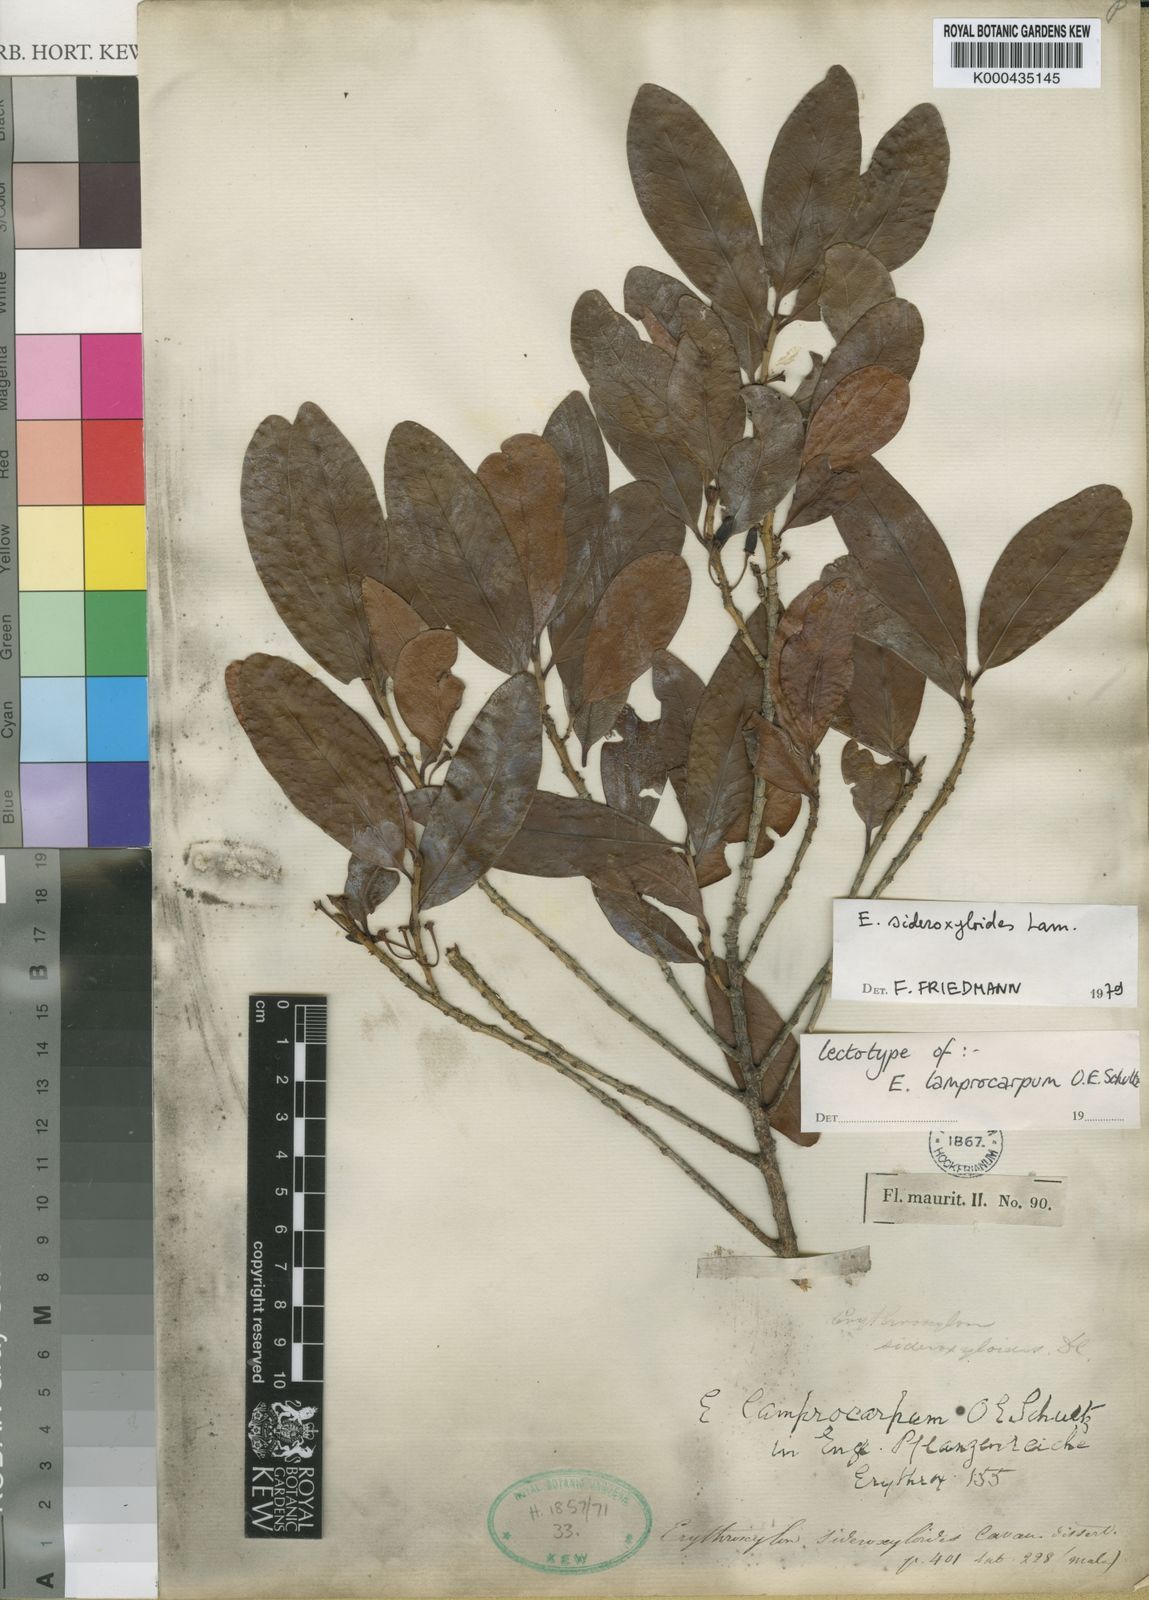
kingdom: Plantae
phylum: Tracheophyta
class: Magnoliopsida
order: Malpighiales
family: Erythroxylaceae
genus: Erythroxylum
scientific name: Erythroxylum sideroxyloides
